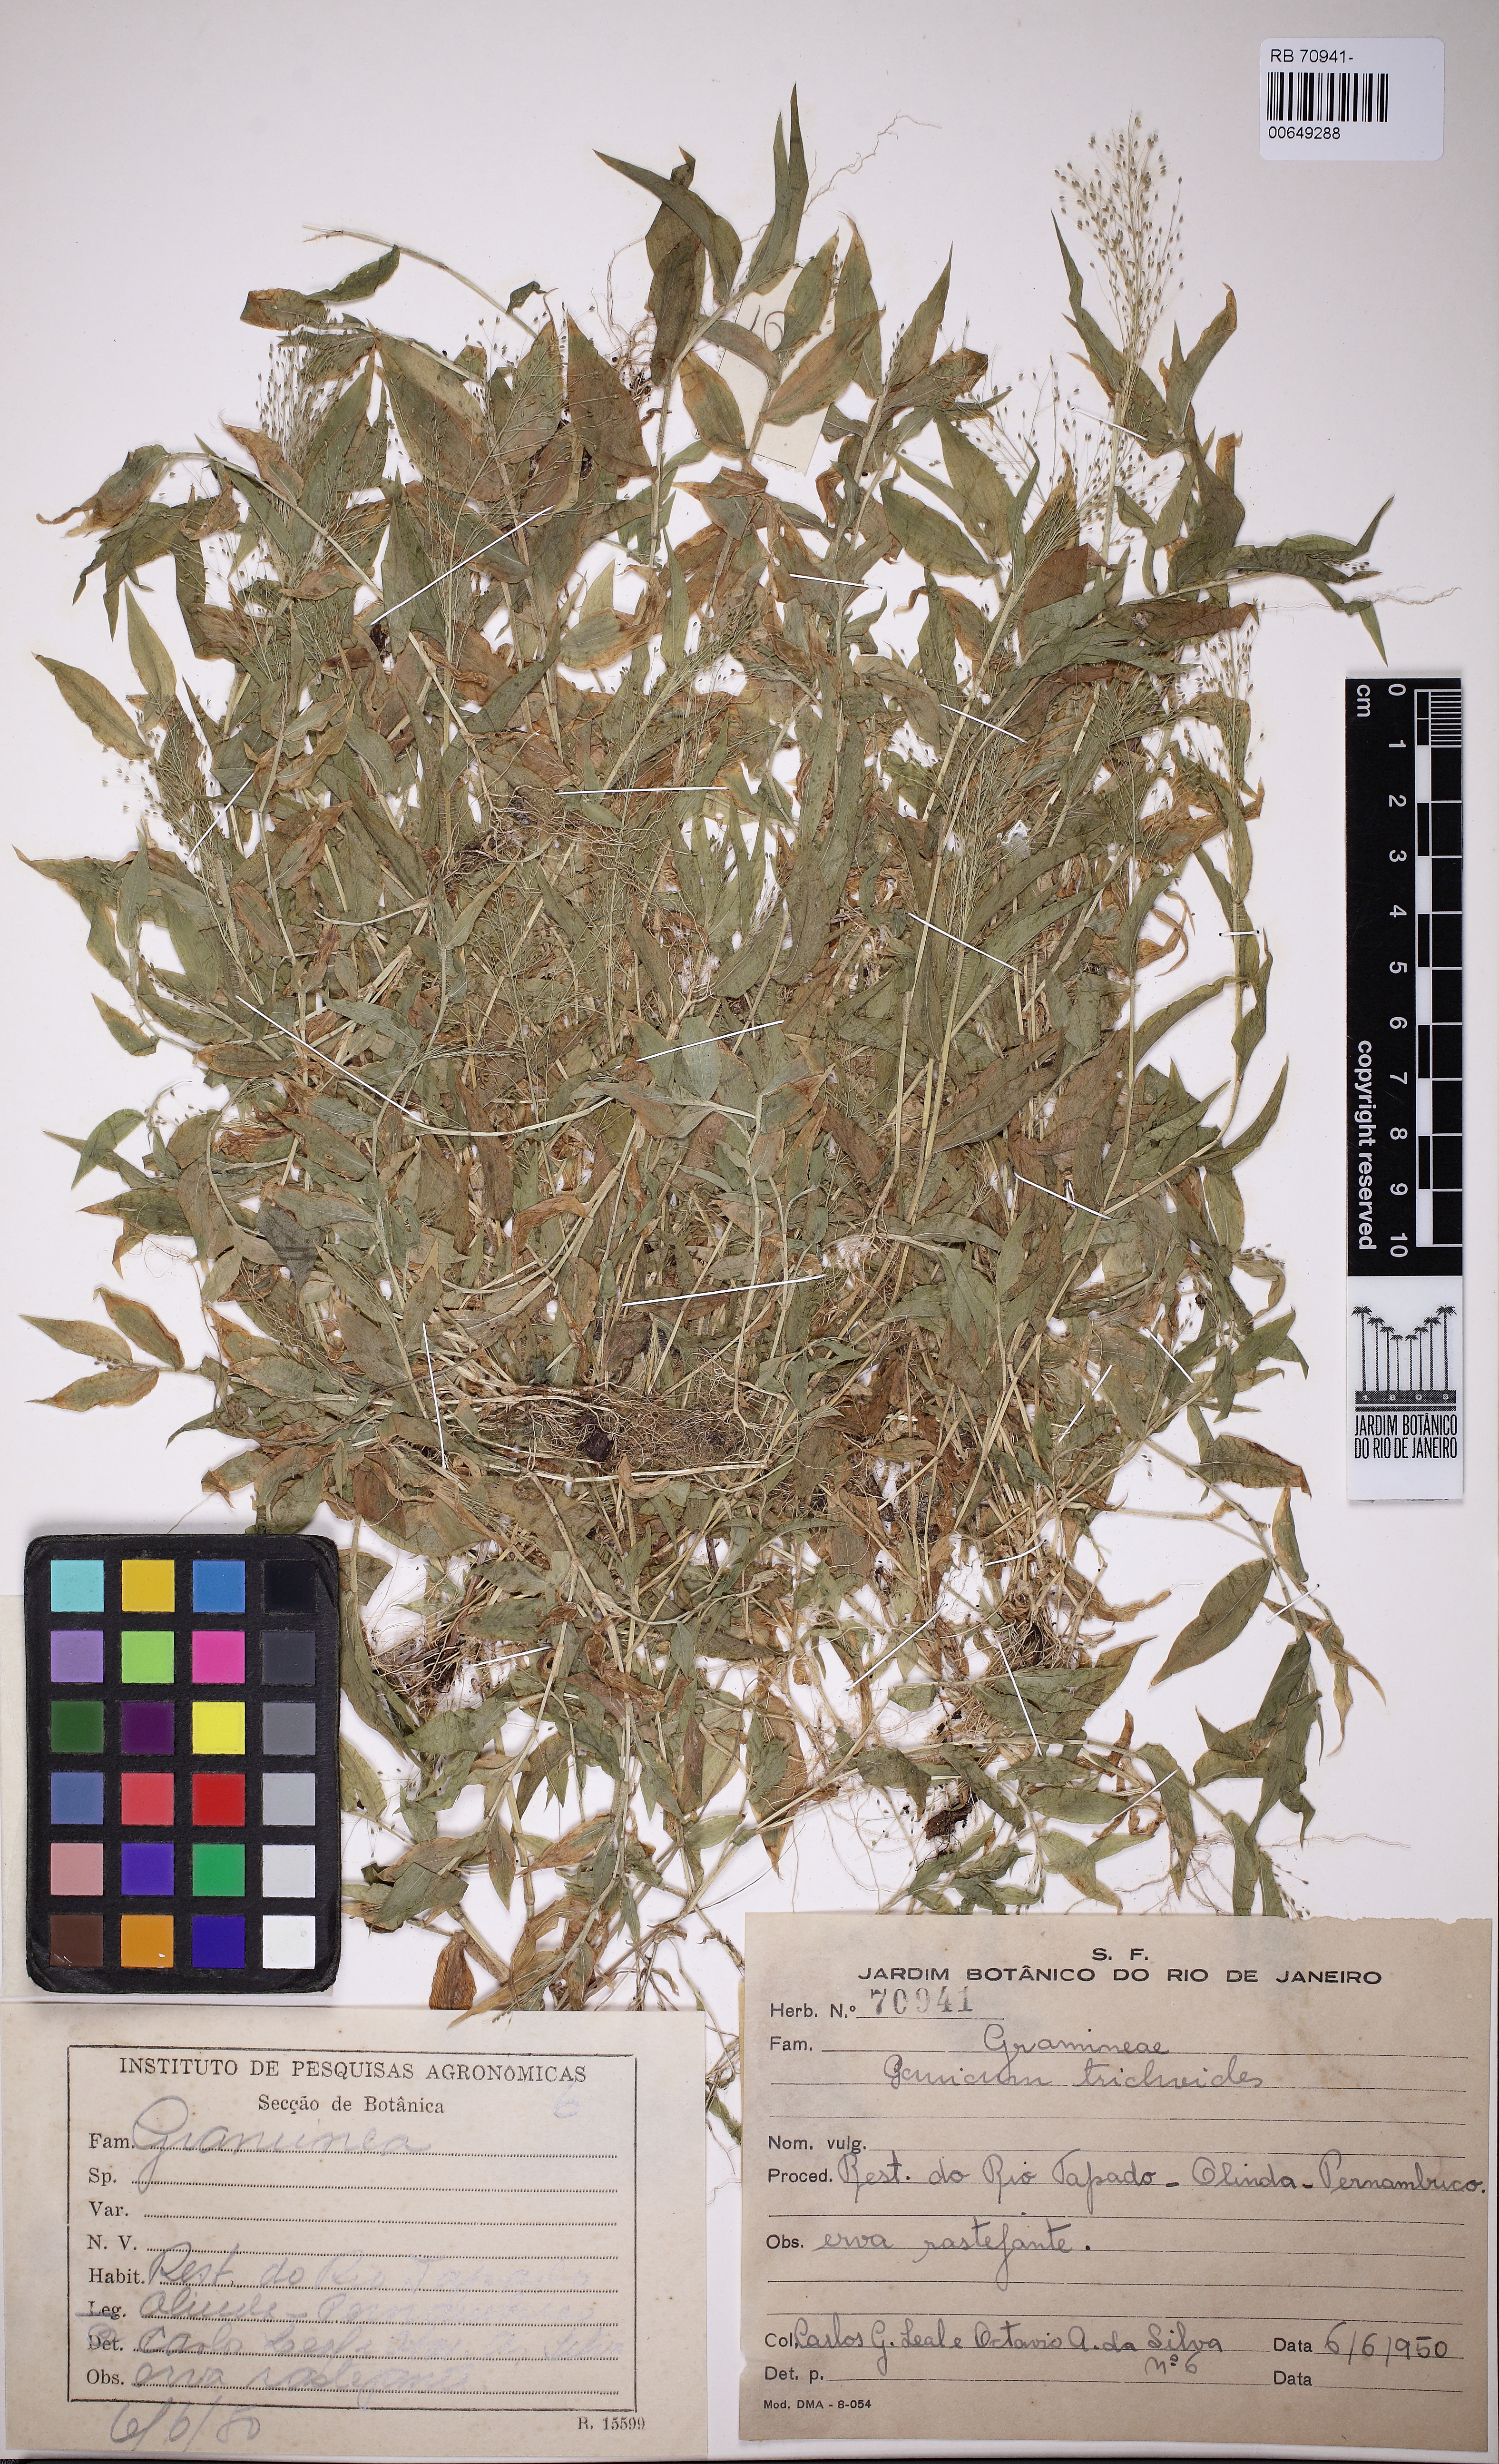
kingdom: Plantae
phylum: Tracheophyta
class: Liliopsida
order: Poales
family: Poaceae
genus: Panicum
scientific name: Panicum trichoides
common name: Tickle grass
